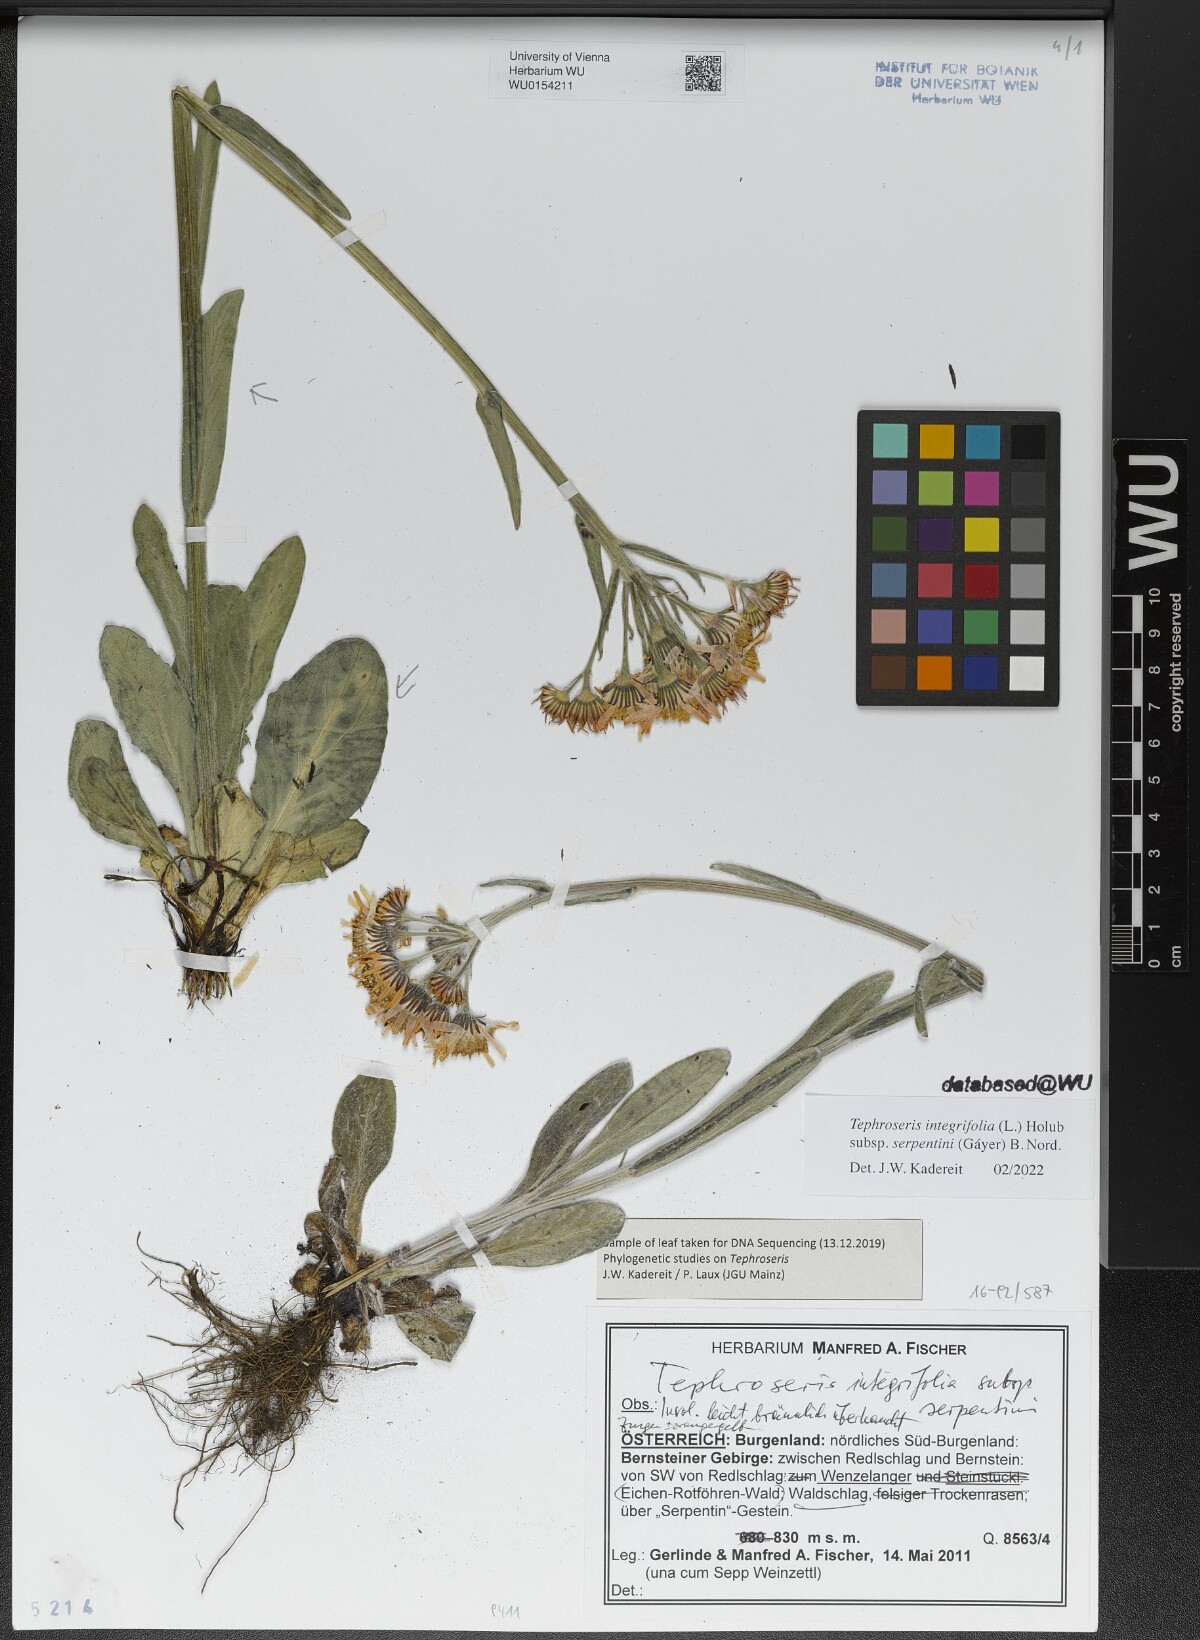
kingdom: Plantae
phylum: Tracheophyta
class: Magnoliopsida
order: Asterales
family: Asteraceae
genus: Tephroseris
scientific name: Tephroseris integrifolia
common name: Field fleawort
